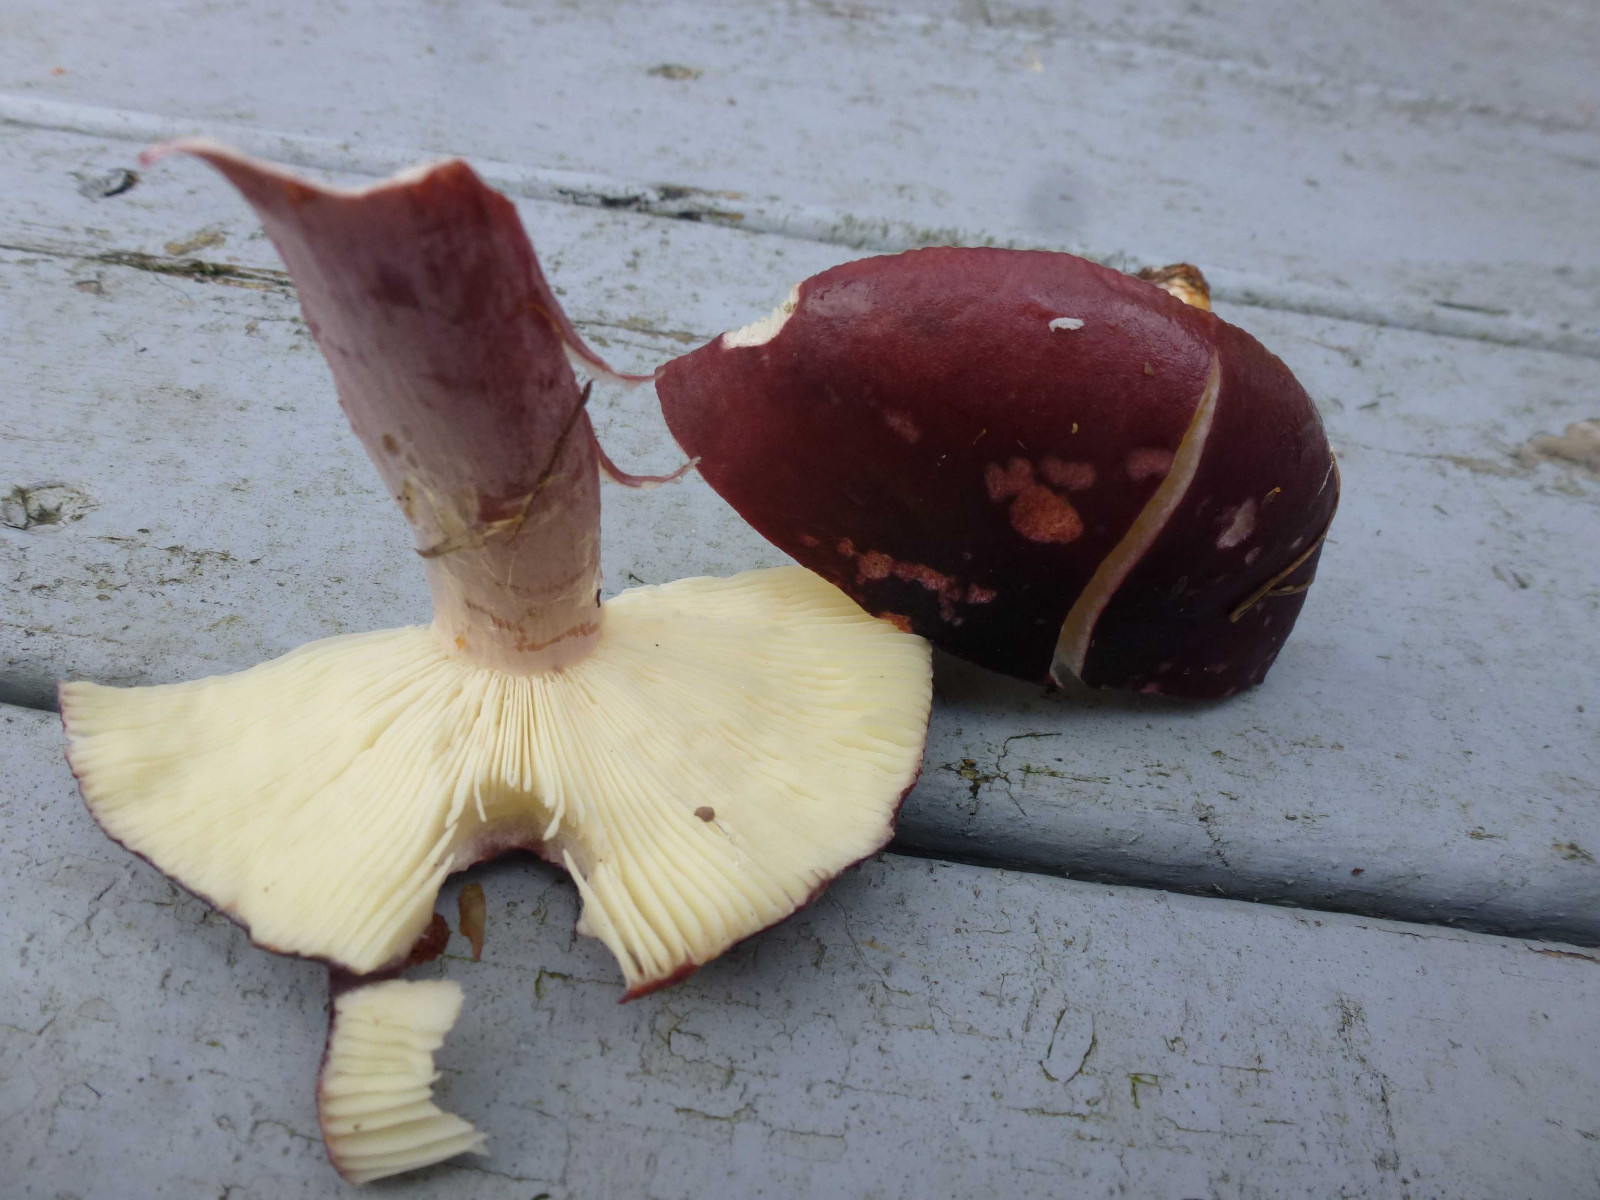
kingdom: Fungi
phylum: Basidiomycota
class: Agaricomycetes
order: Russulales
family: Russulaceae
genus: Russula
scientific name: Russula queletii
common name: Quélets skørhat
